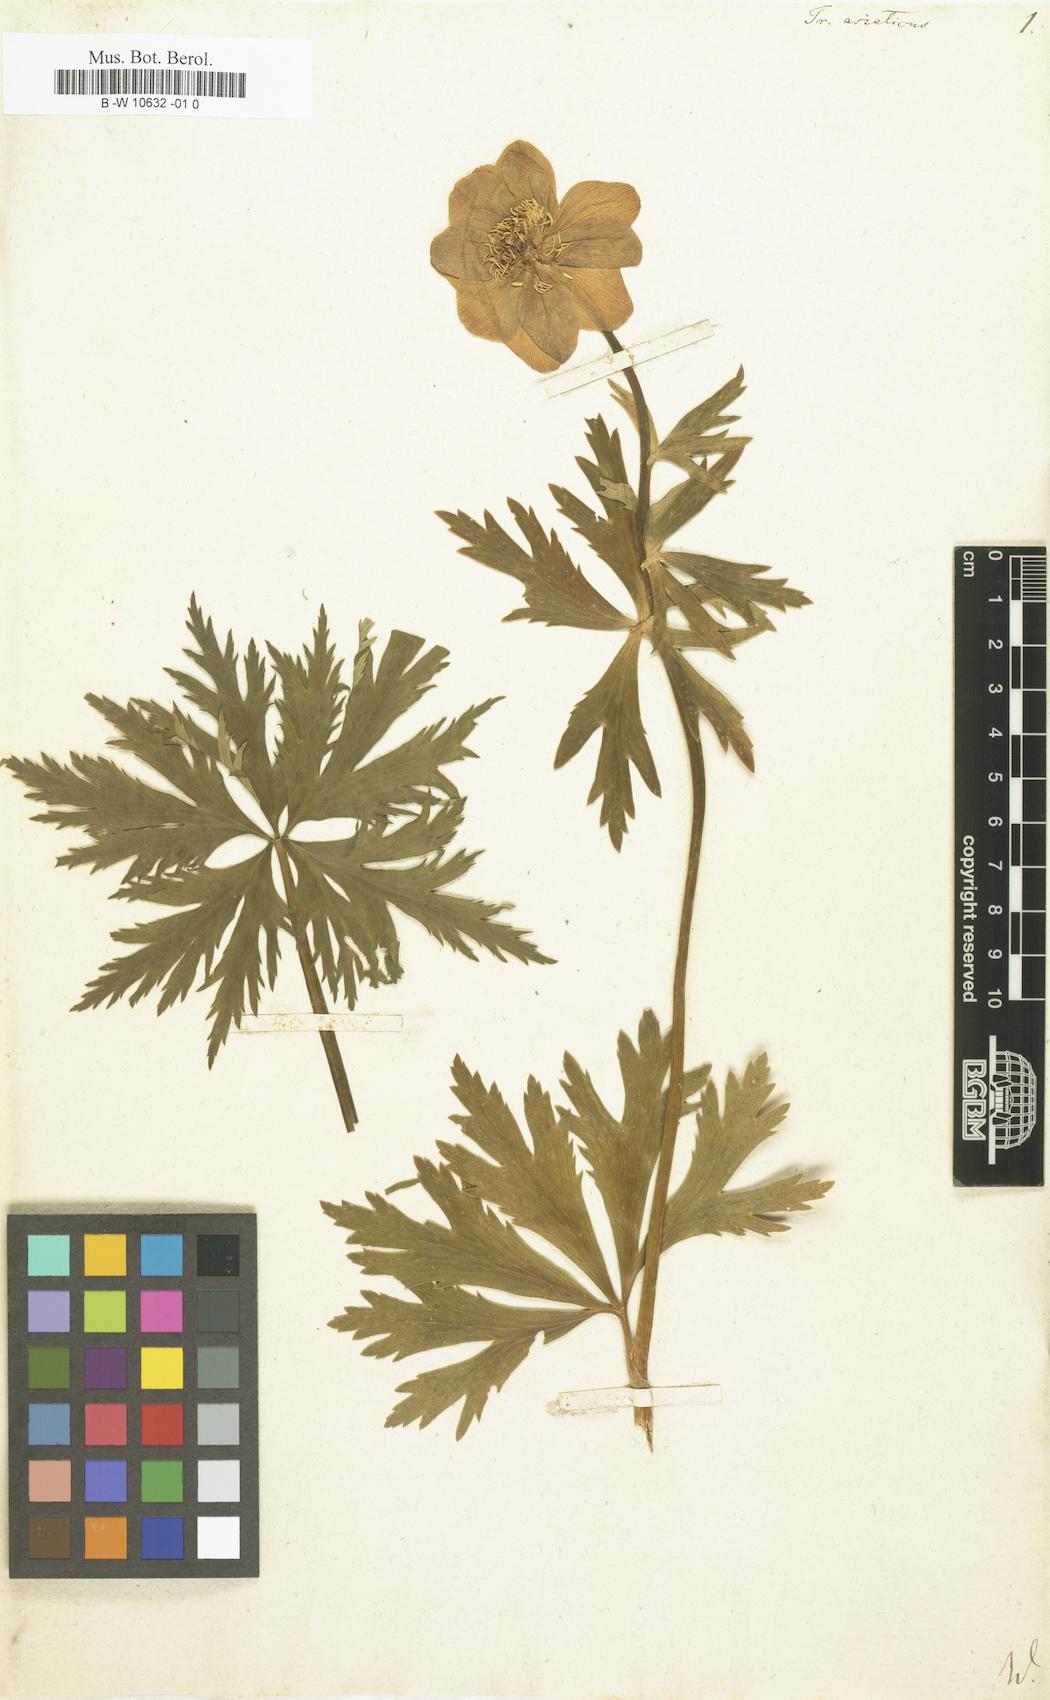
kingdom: Plantae
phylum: Tracheophyta
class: Magnoliopsida
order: Ranunculales
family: Ranunculaceae
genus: Trollius
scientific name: Trollius asiaticus
